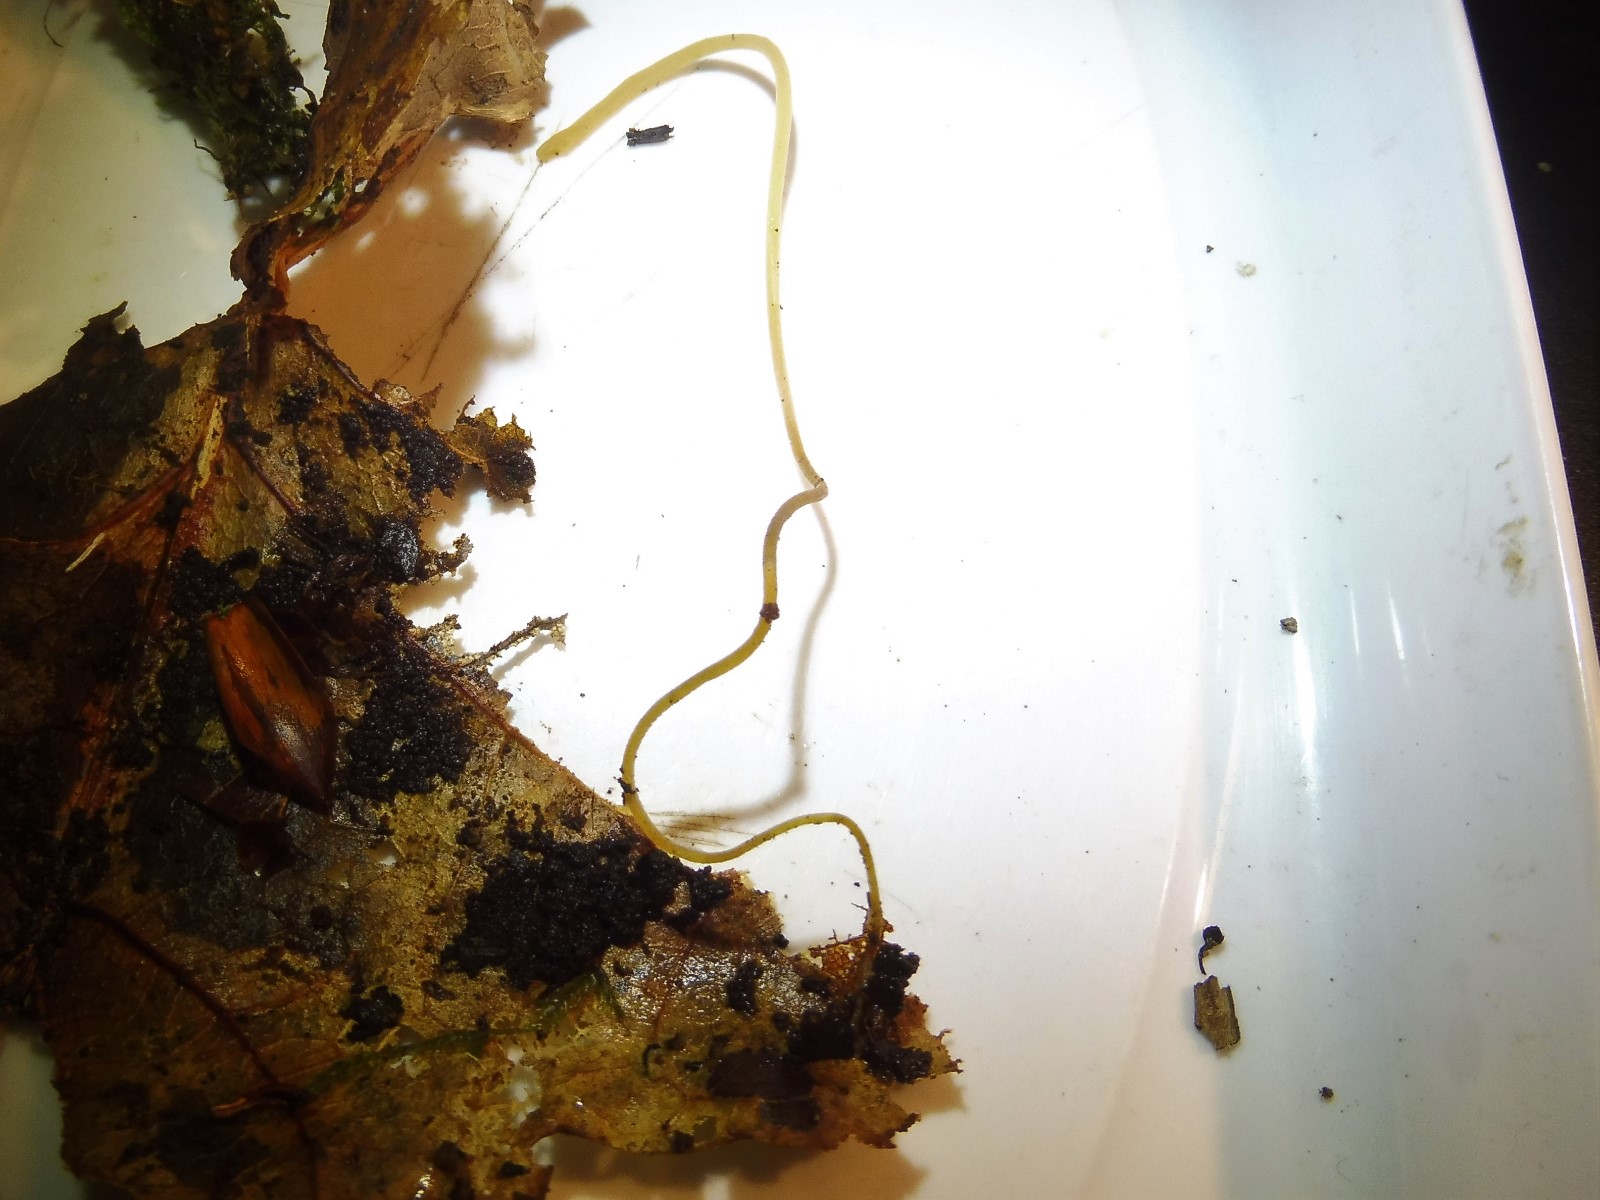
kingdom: Fungi
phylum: Basidiomycota
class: Agaricomycetes
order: Agaricales
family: Typhulaceae
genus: Typhula
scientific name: Typhula juncea
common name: trådagtig rørkølle
